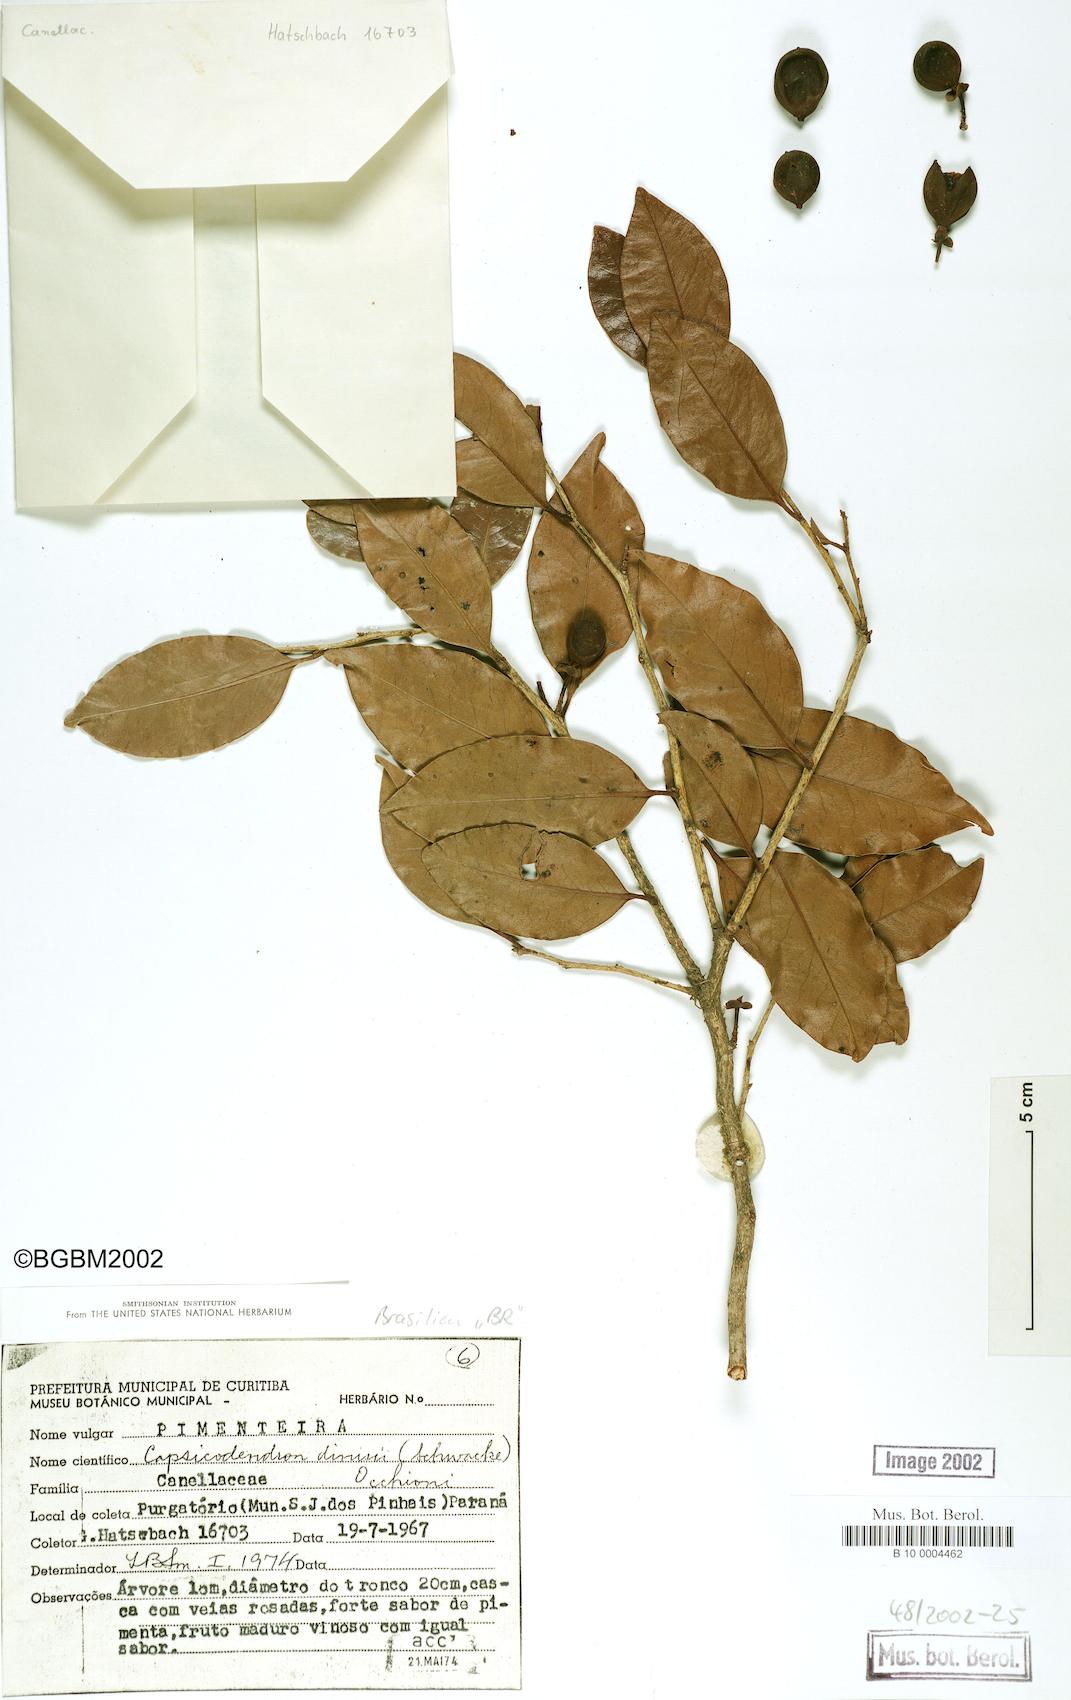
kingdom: Plantae
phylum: Tracheophyta
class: Magnoliopsida
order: Canellales
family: Canellaceae
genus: Cinnamodendron
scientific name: Cinnamodendron dinisii
